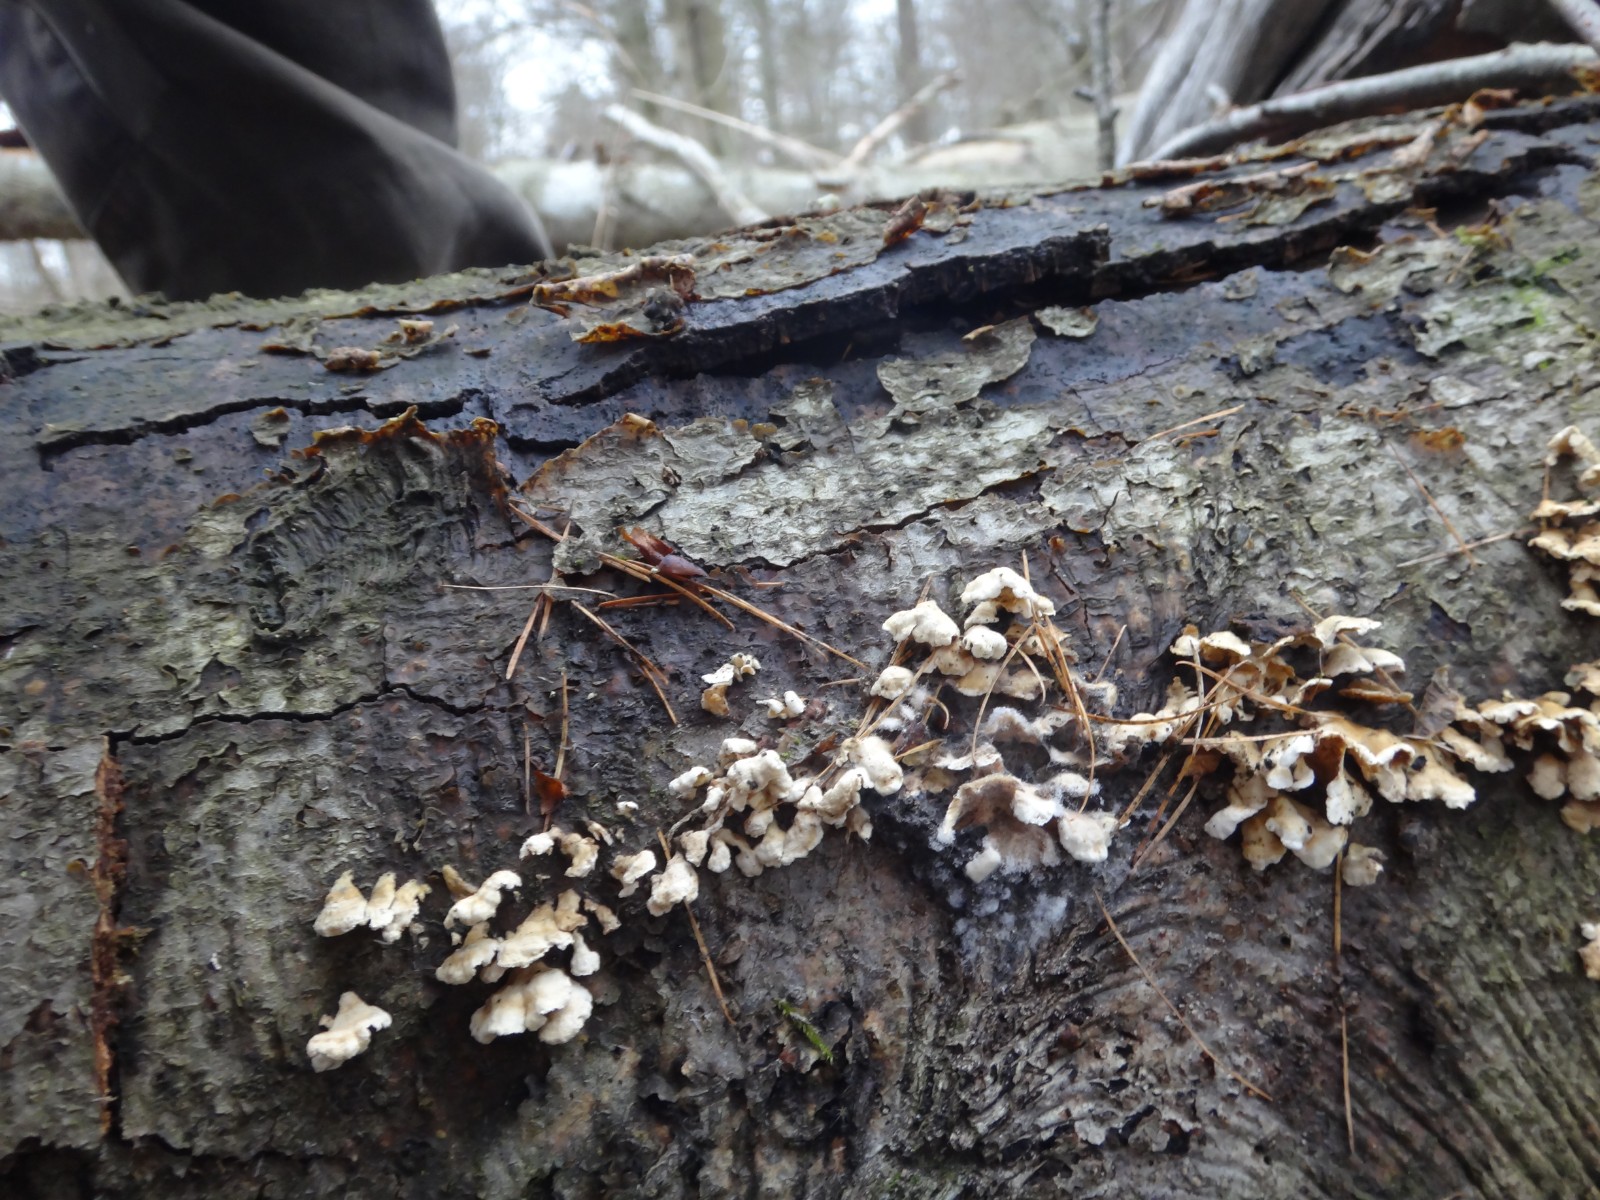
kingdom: Fungi
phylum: Basidiomycota
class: Agaricomycetes
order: Amylocorticiales
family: Amylocorticiaceae
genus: Plicaturopsis
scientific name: Plicaturopsis crispa
